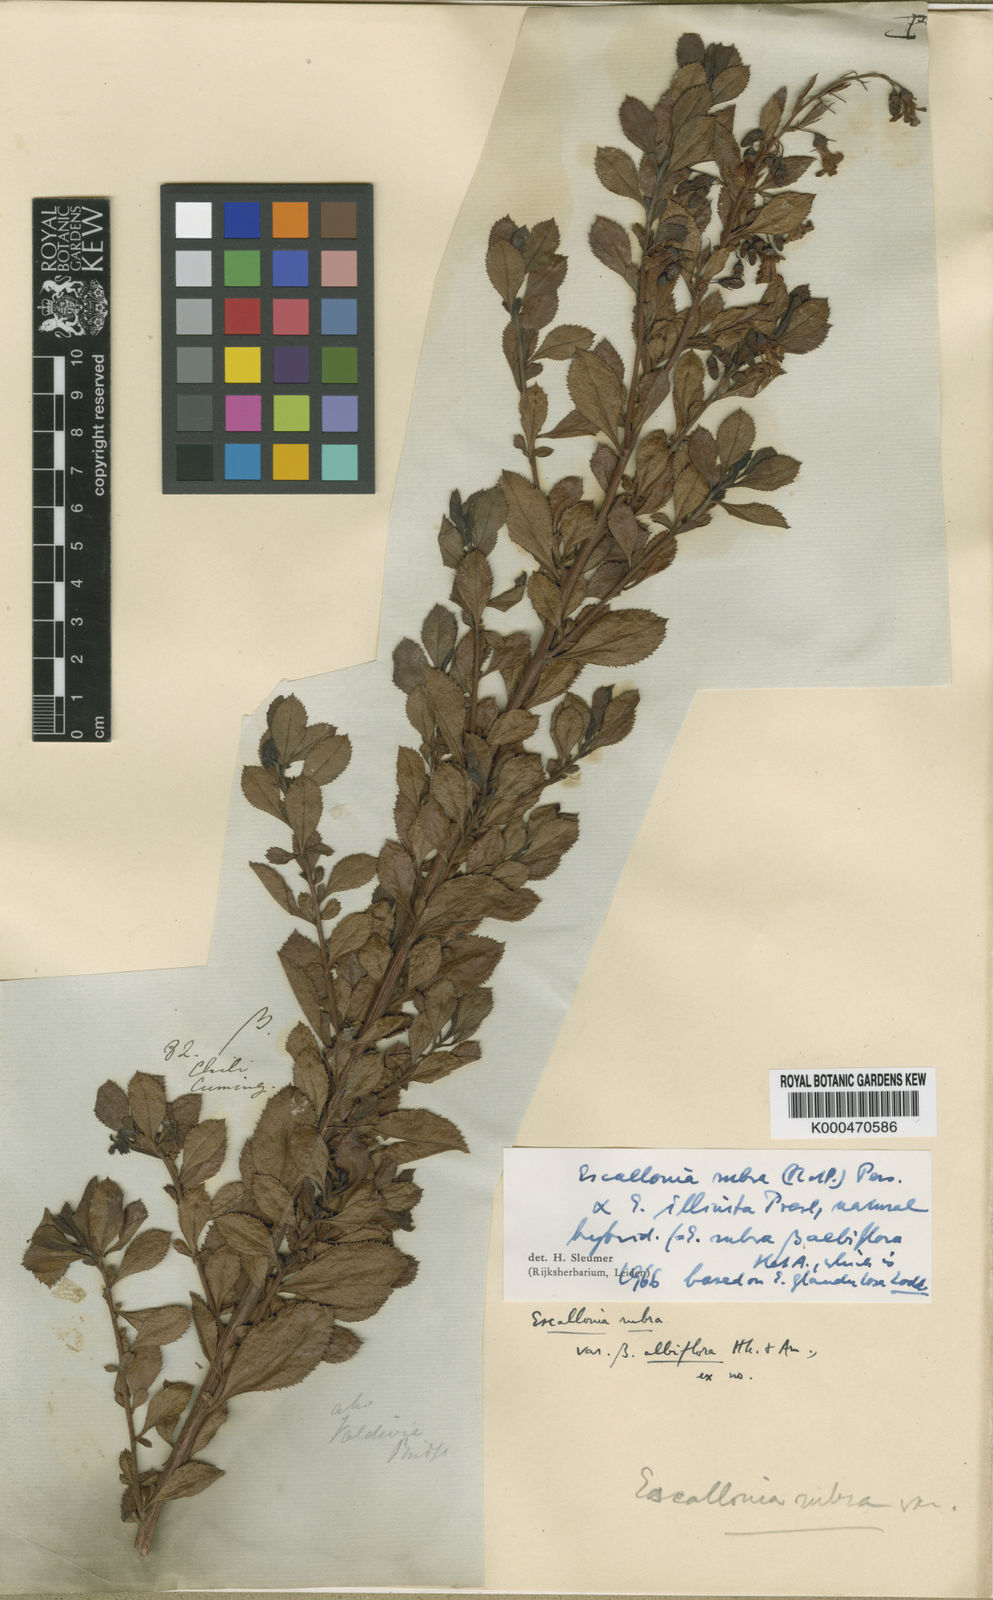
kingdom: Plantae
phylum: Tracheophyta
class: Magnoliopsida
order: Escalloniales
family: Escalloniaceae
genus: Escallonia
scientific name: Escallonia
